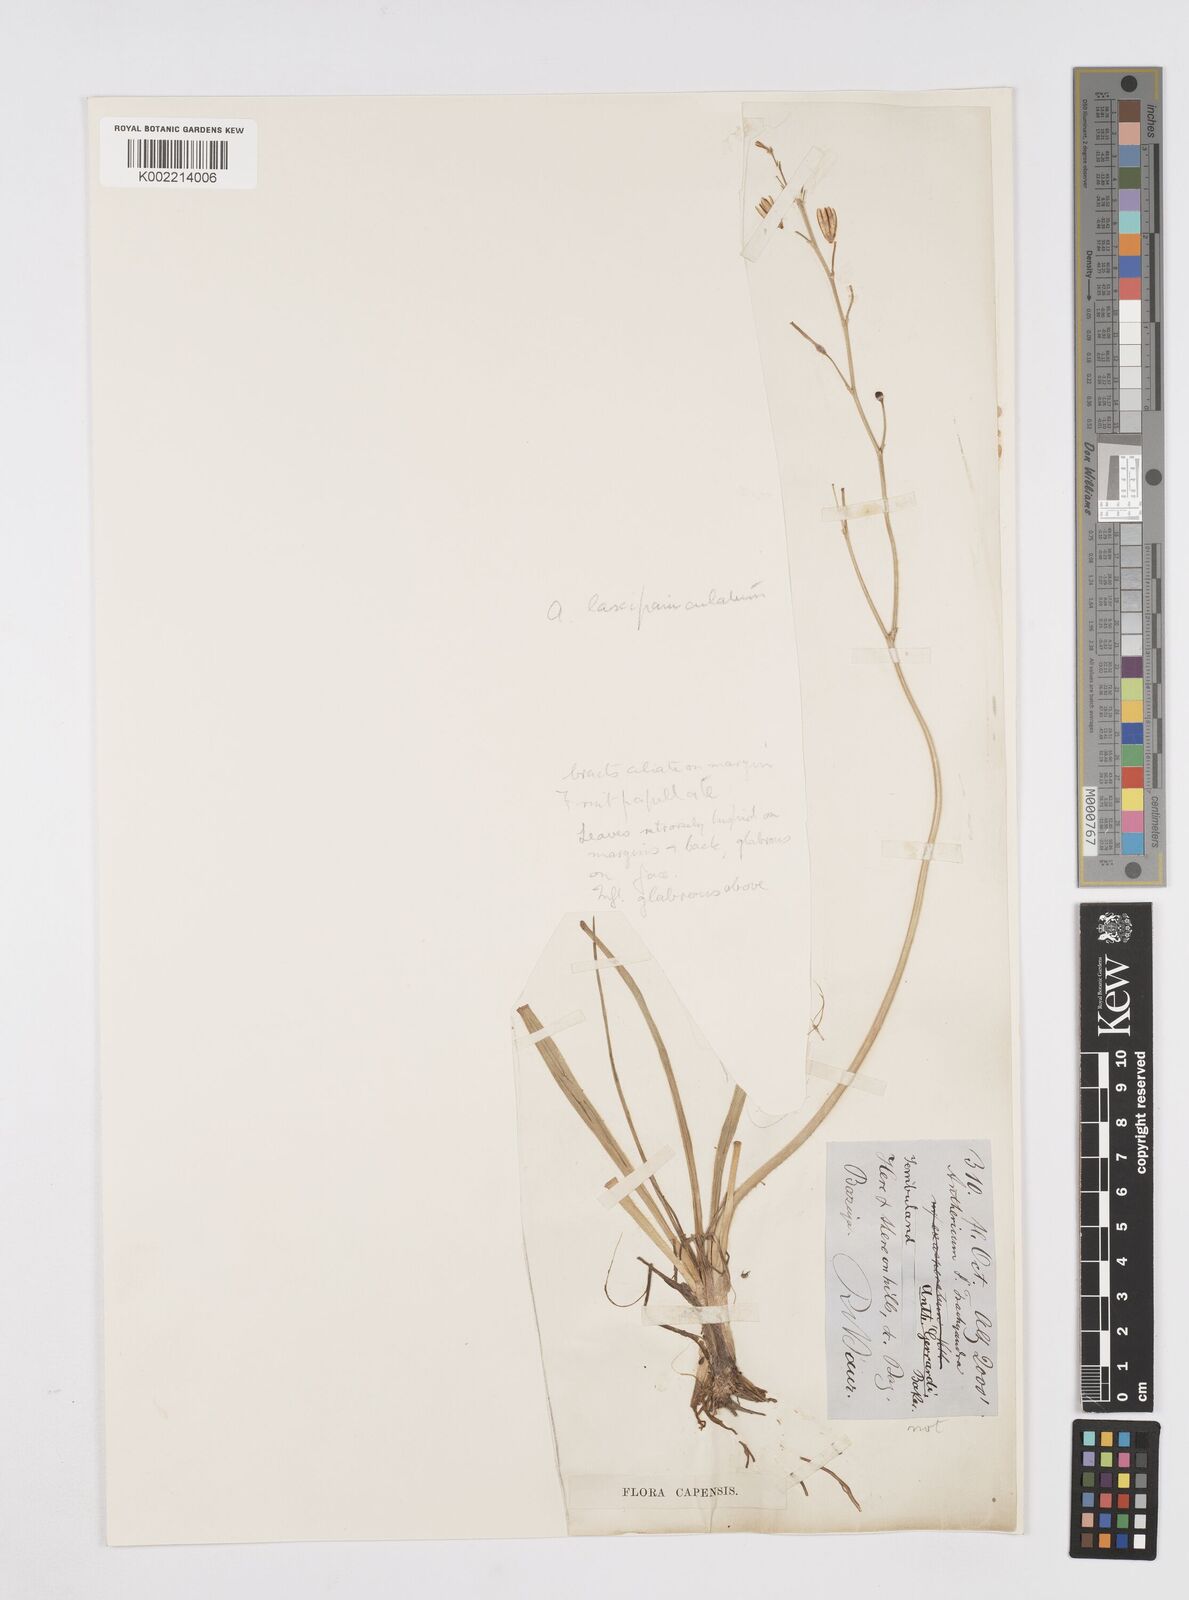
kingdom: Plantae
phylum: Tracheophyta
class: Liliopsida
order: Asparagales
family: Asphodelaceae
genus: Trachyandra
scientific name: Trachyandra capillata
